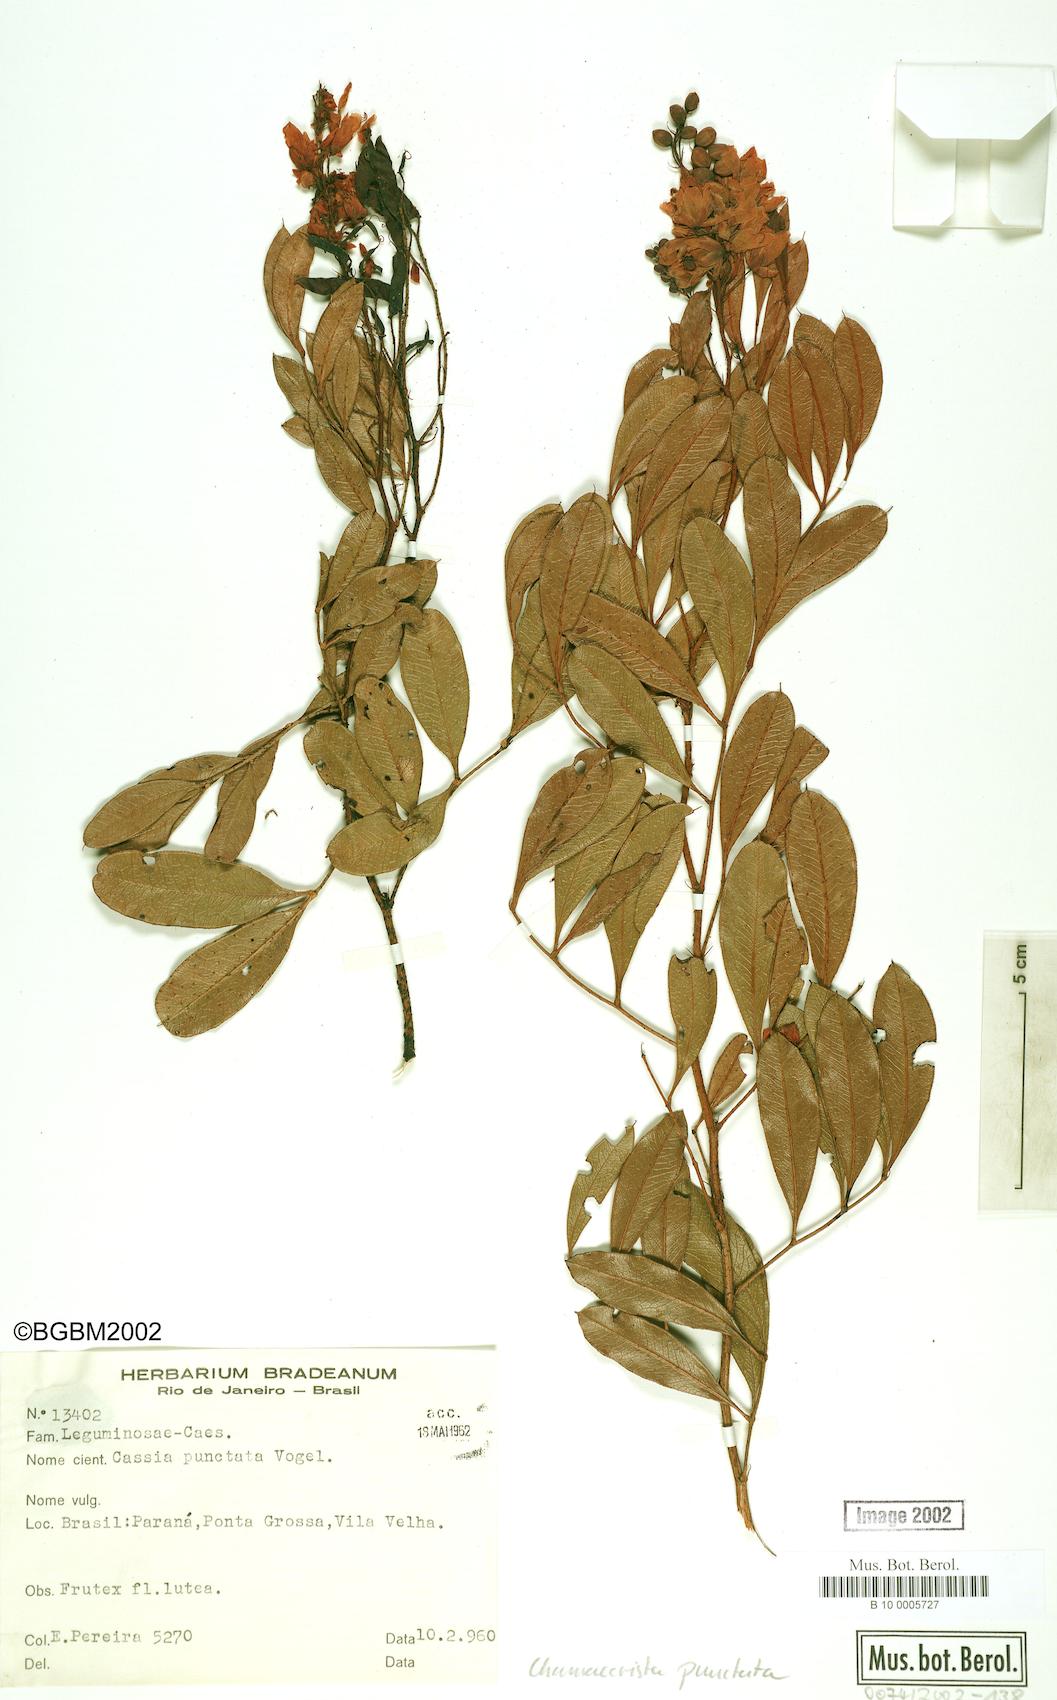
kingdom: Plantae
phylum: Tracheophyta
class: Magnoliopsida
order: Fabales
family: Fabaceae
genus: Chamaecrista
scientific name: Chamaecrista punctata
